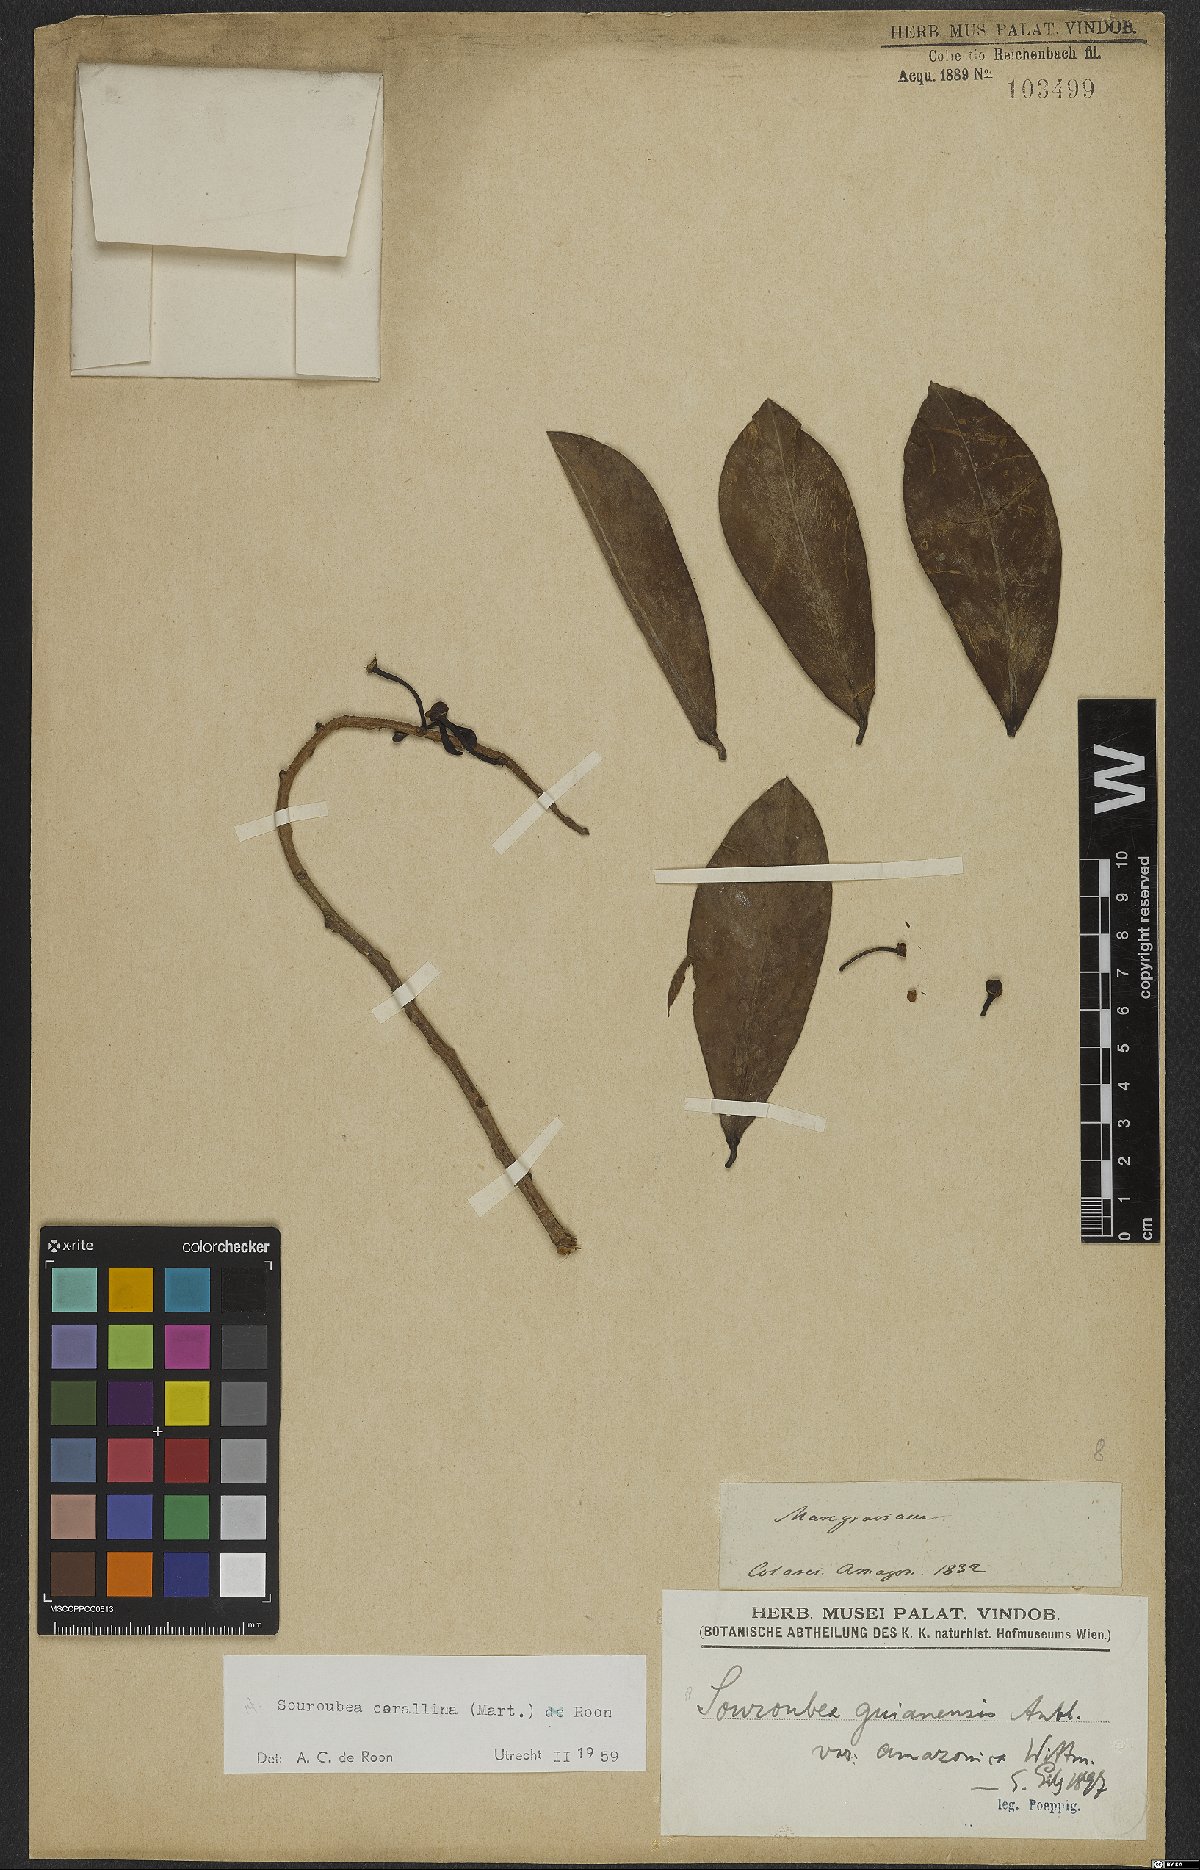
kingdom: Plantae
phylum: Tracheophyta
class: Magnoliopsida
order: Ericales
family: Marcgraviaceae
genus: Souroubea
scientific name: Souroubea corallina
